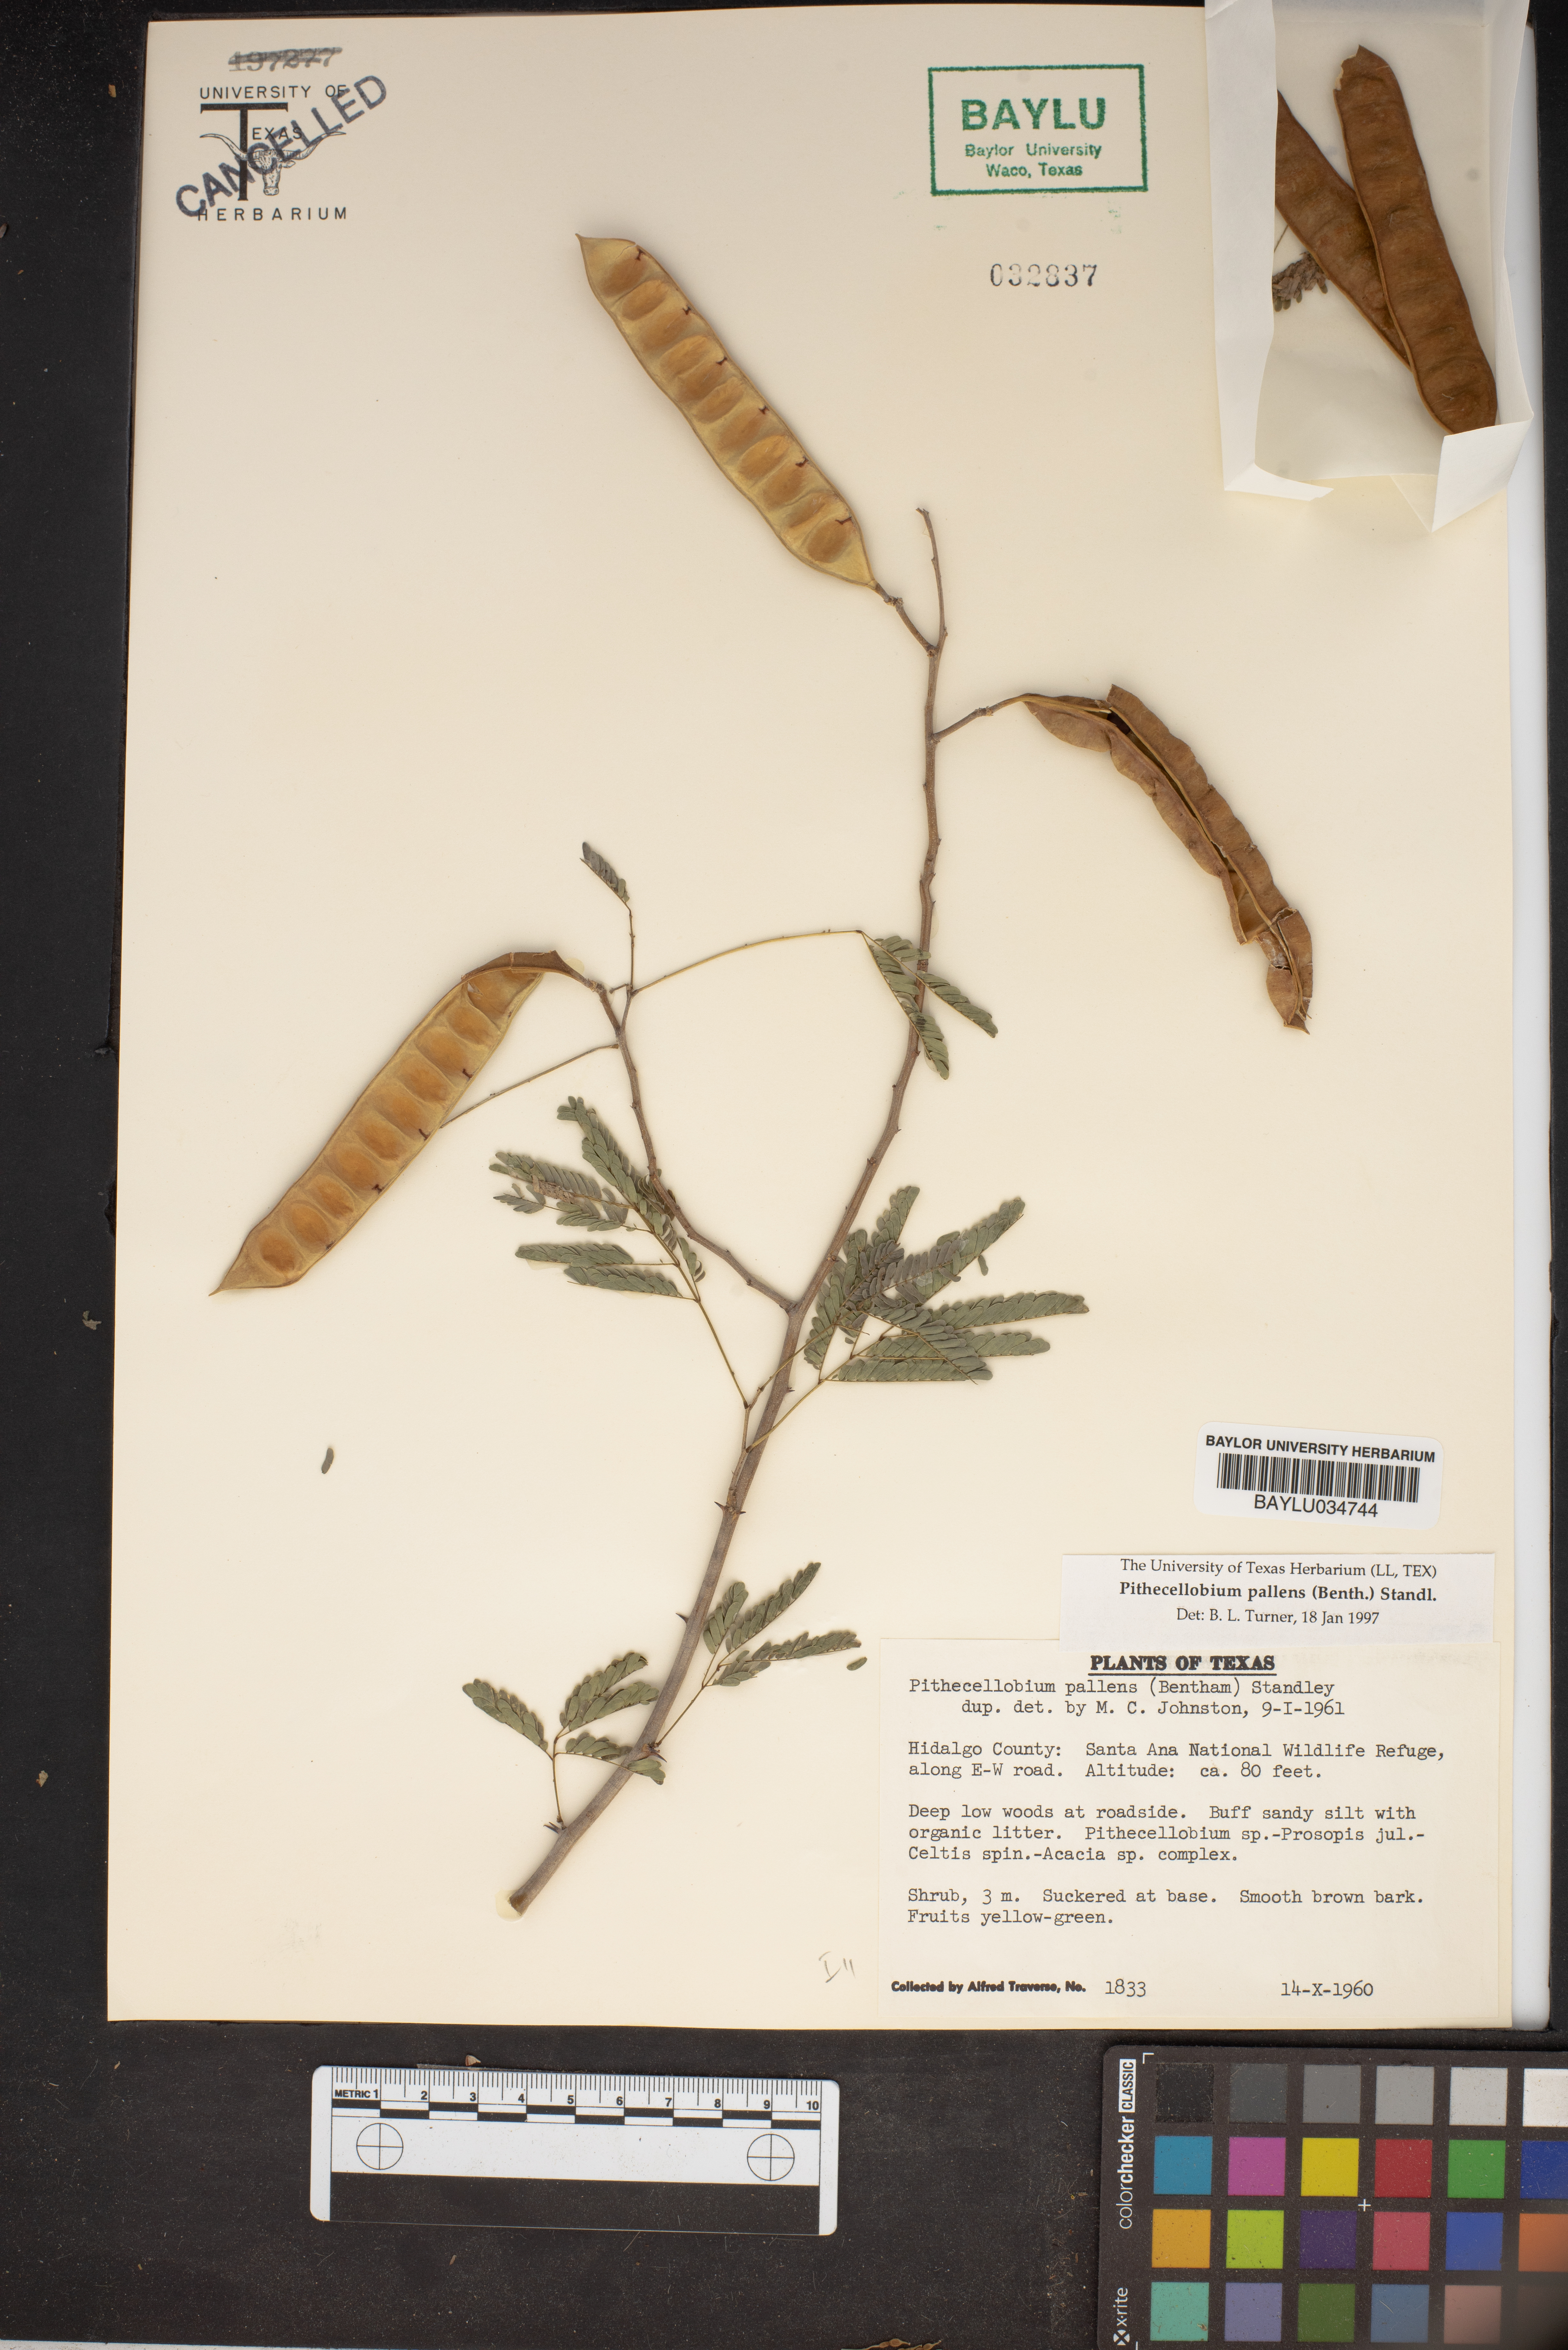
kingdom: Plantae
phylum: Tracheophyta
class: Magnoliopsida
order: Fabales
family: Fabaceae
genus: Havardia
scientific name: Havardia pallens
